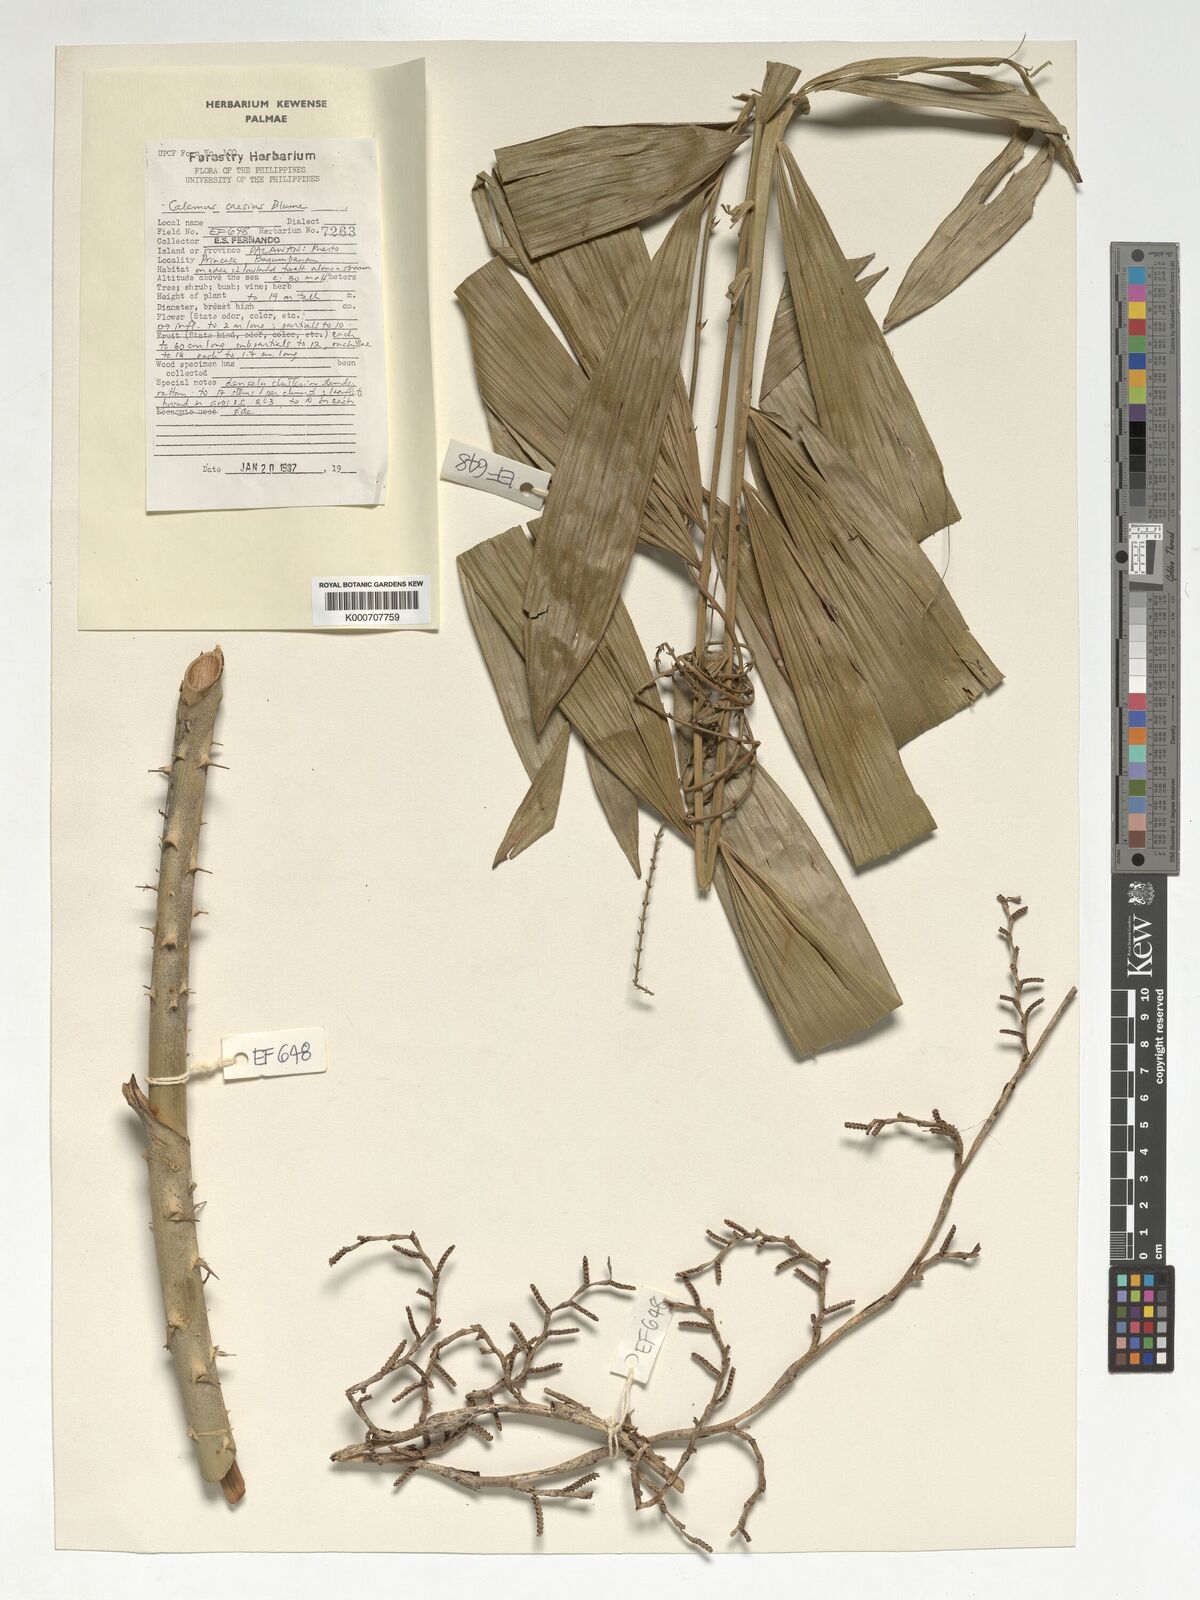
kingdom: Plantae
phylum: Tracheophyta
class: Liliopsida
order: Arecales
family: Arecaceae
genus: Calamus
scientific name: Calamus caesius
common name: Rattan palm
